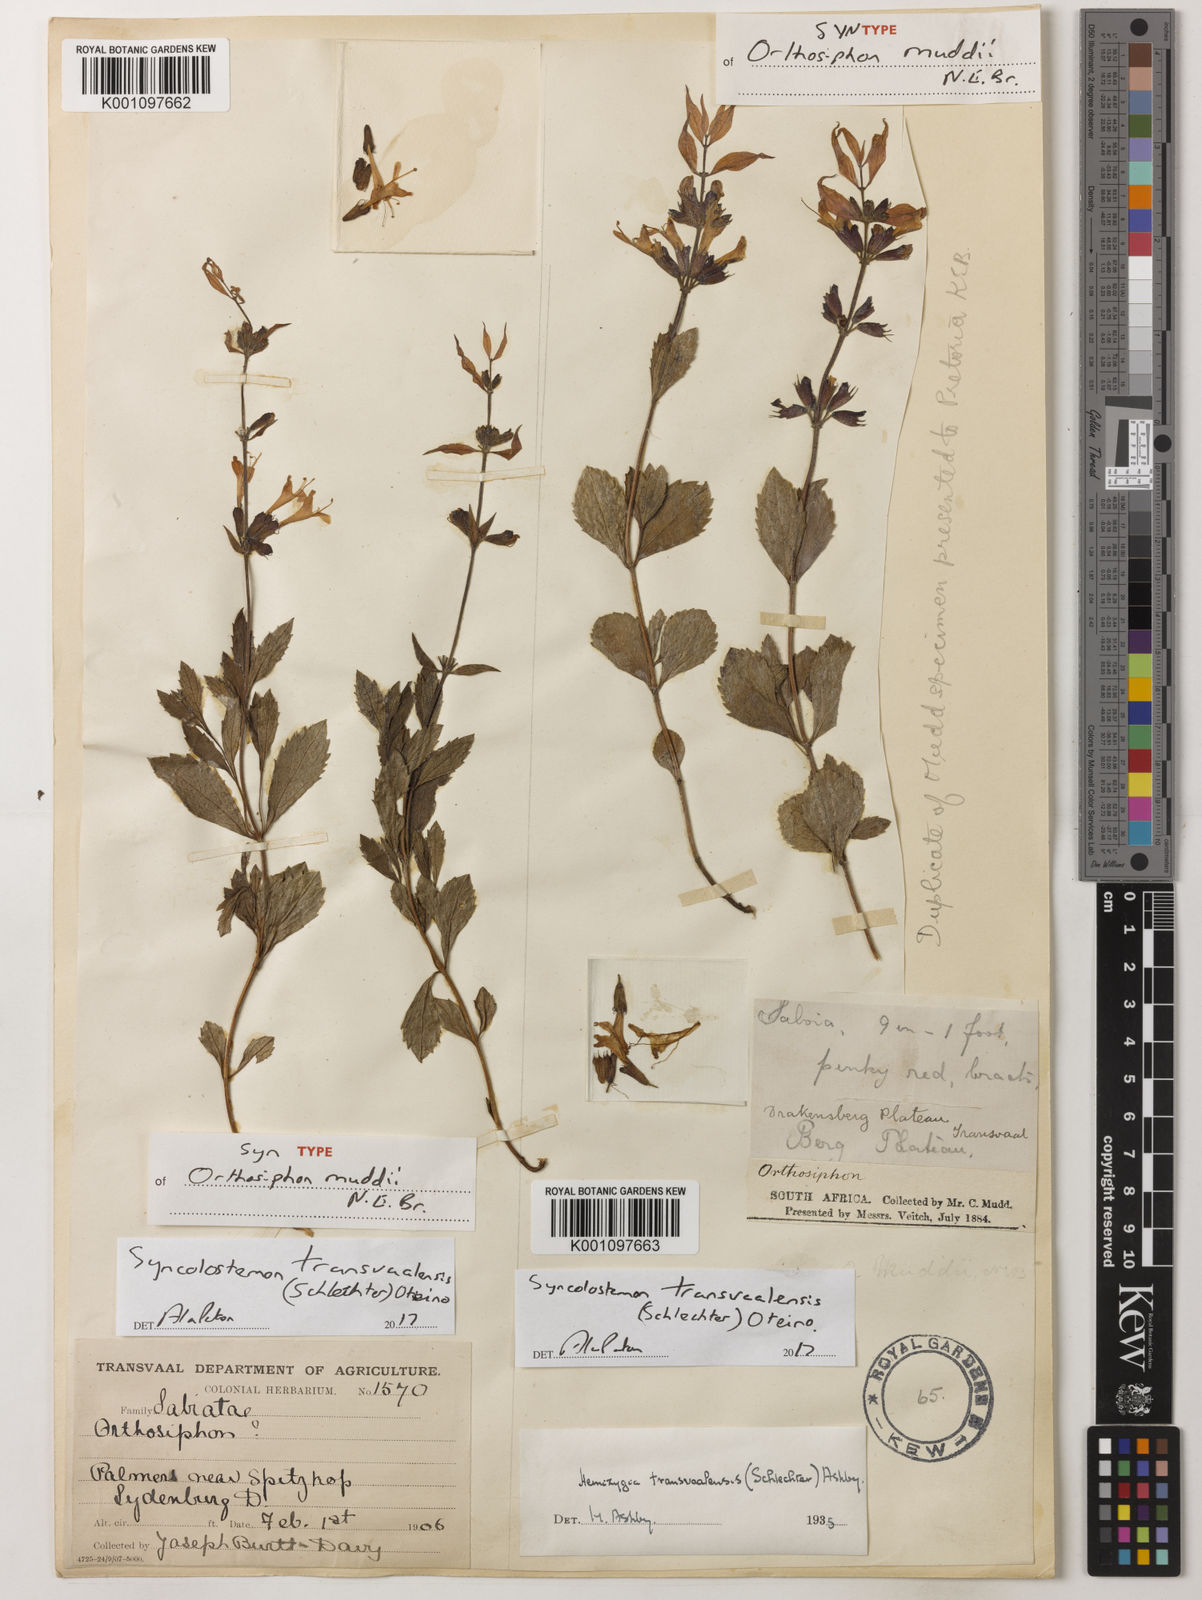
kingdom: Plantae
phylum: Tracheophyta
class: Magnoliopsida
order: Lamiales
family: Lamiaceae
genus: Syncolostemon
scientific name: Syncolostemon transvaalensis
